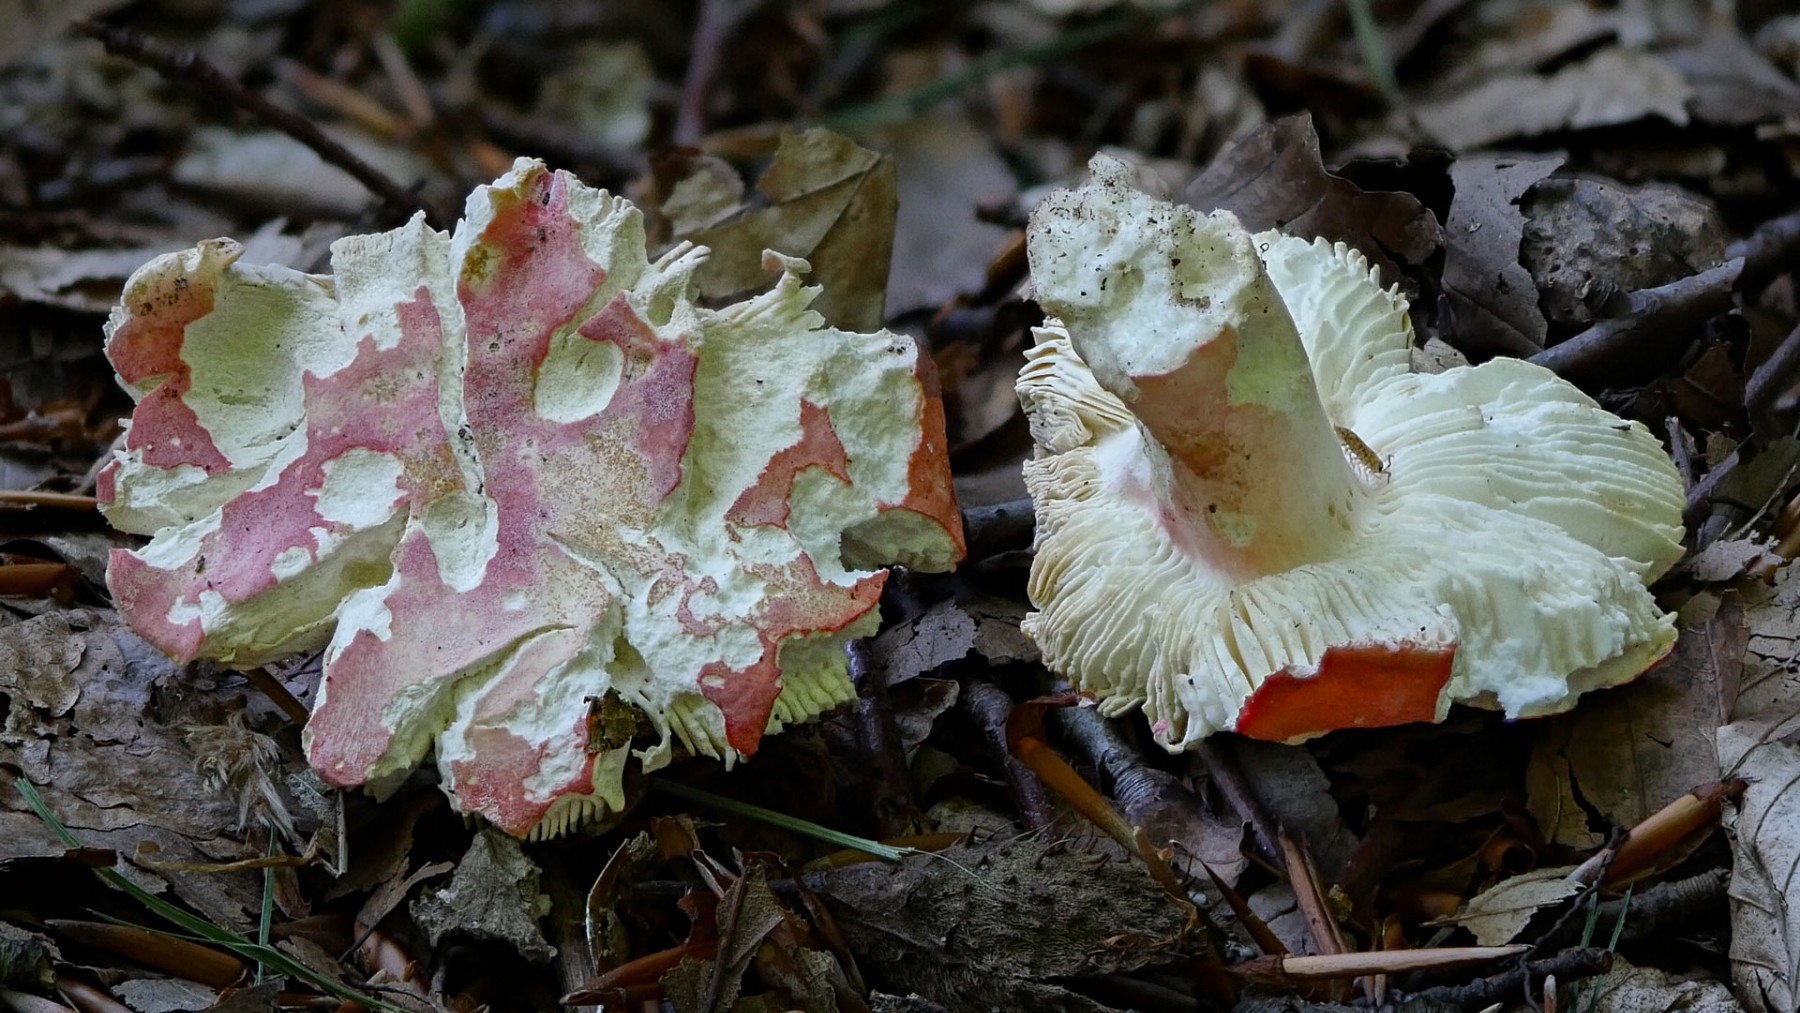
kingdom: Fungi
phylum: Basidiomycota
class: Agaricomycetes
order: Russulales
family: Russulaceae
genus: Russula
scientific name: Russula rosea
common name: fastkødet skørhat
